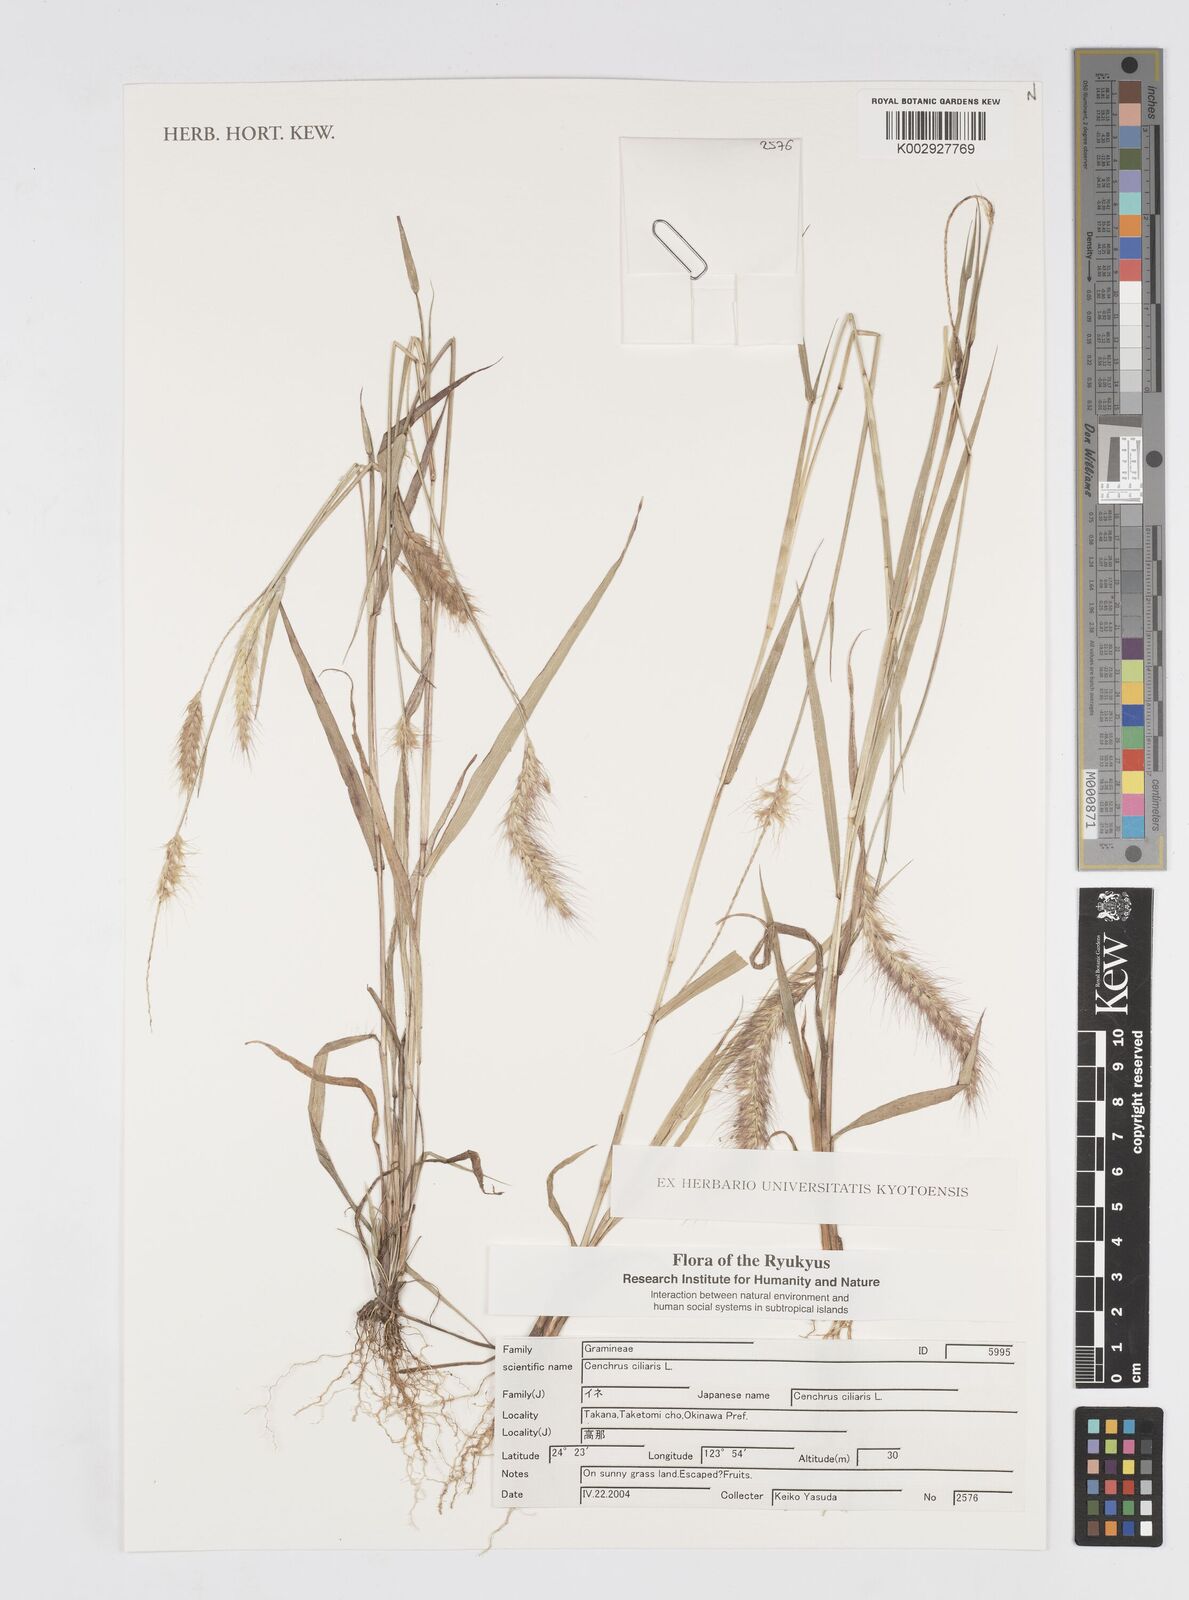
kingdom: Plantae
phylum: Tracheophyta
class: Liliopsida
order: Poales
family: Poaceae
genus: Cenchrus
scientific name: Cenchrus ciliaris
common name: Buffelgrass
